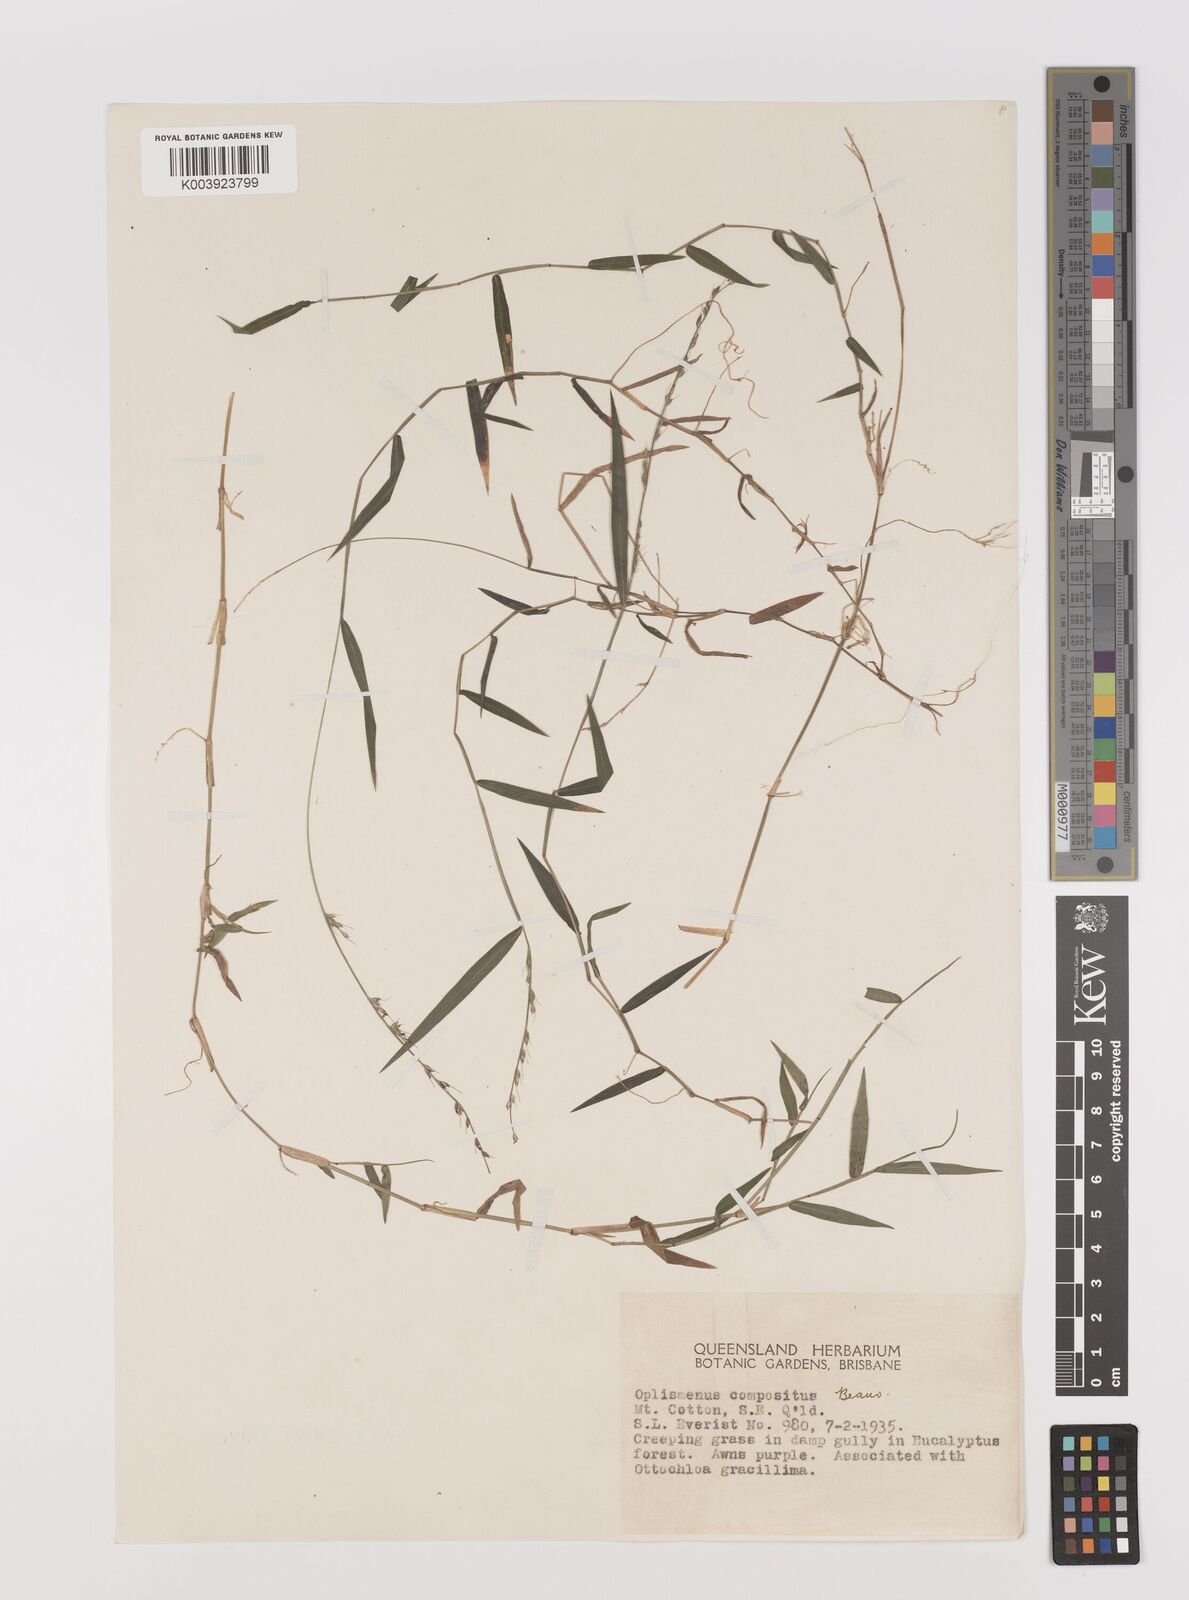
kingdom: Plantae
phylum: Tracheophyta
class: Liliopsida
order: Poales
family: Poaceae
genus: Oplismenus
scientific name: Oplismenus hirtellus
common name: Basketgrass
